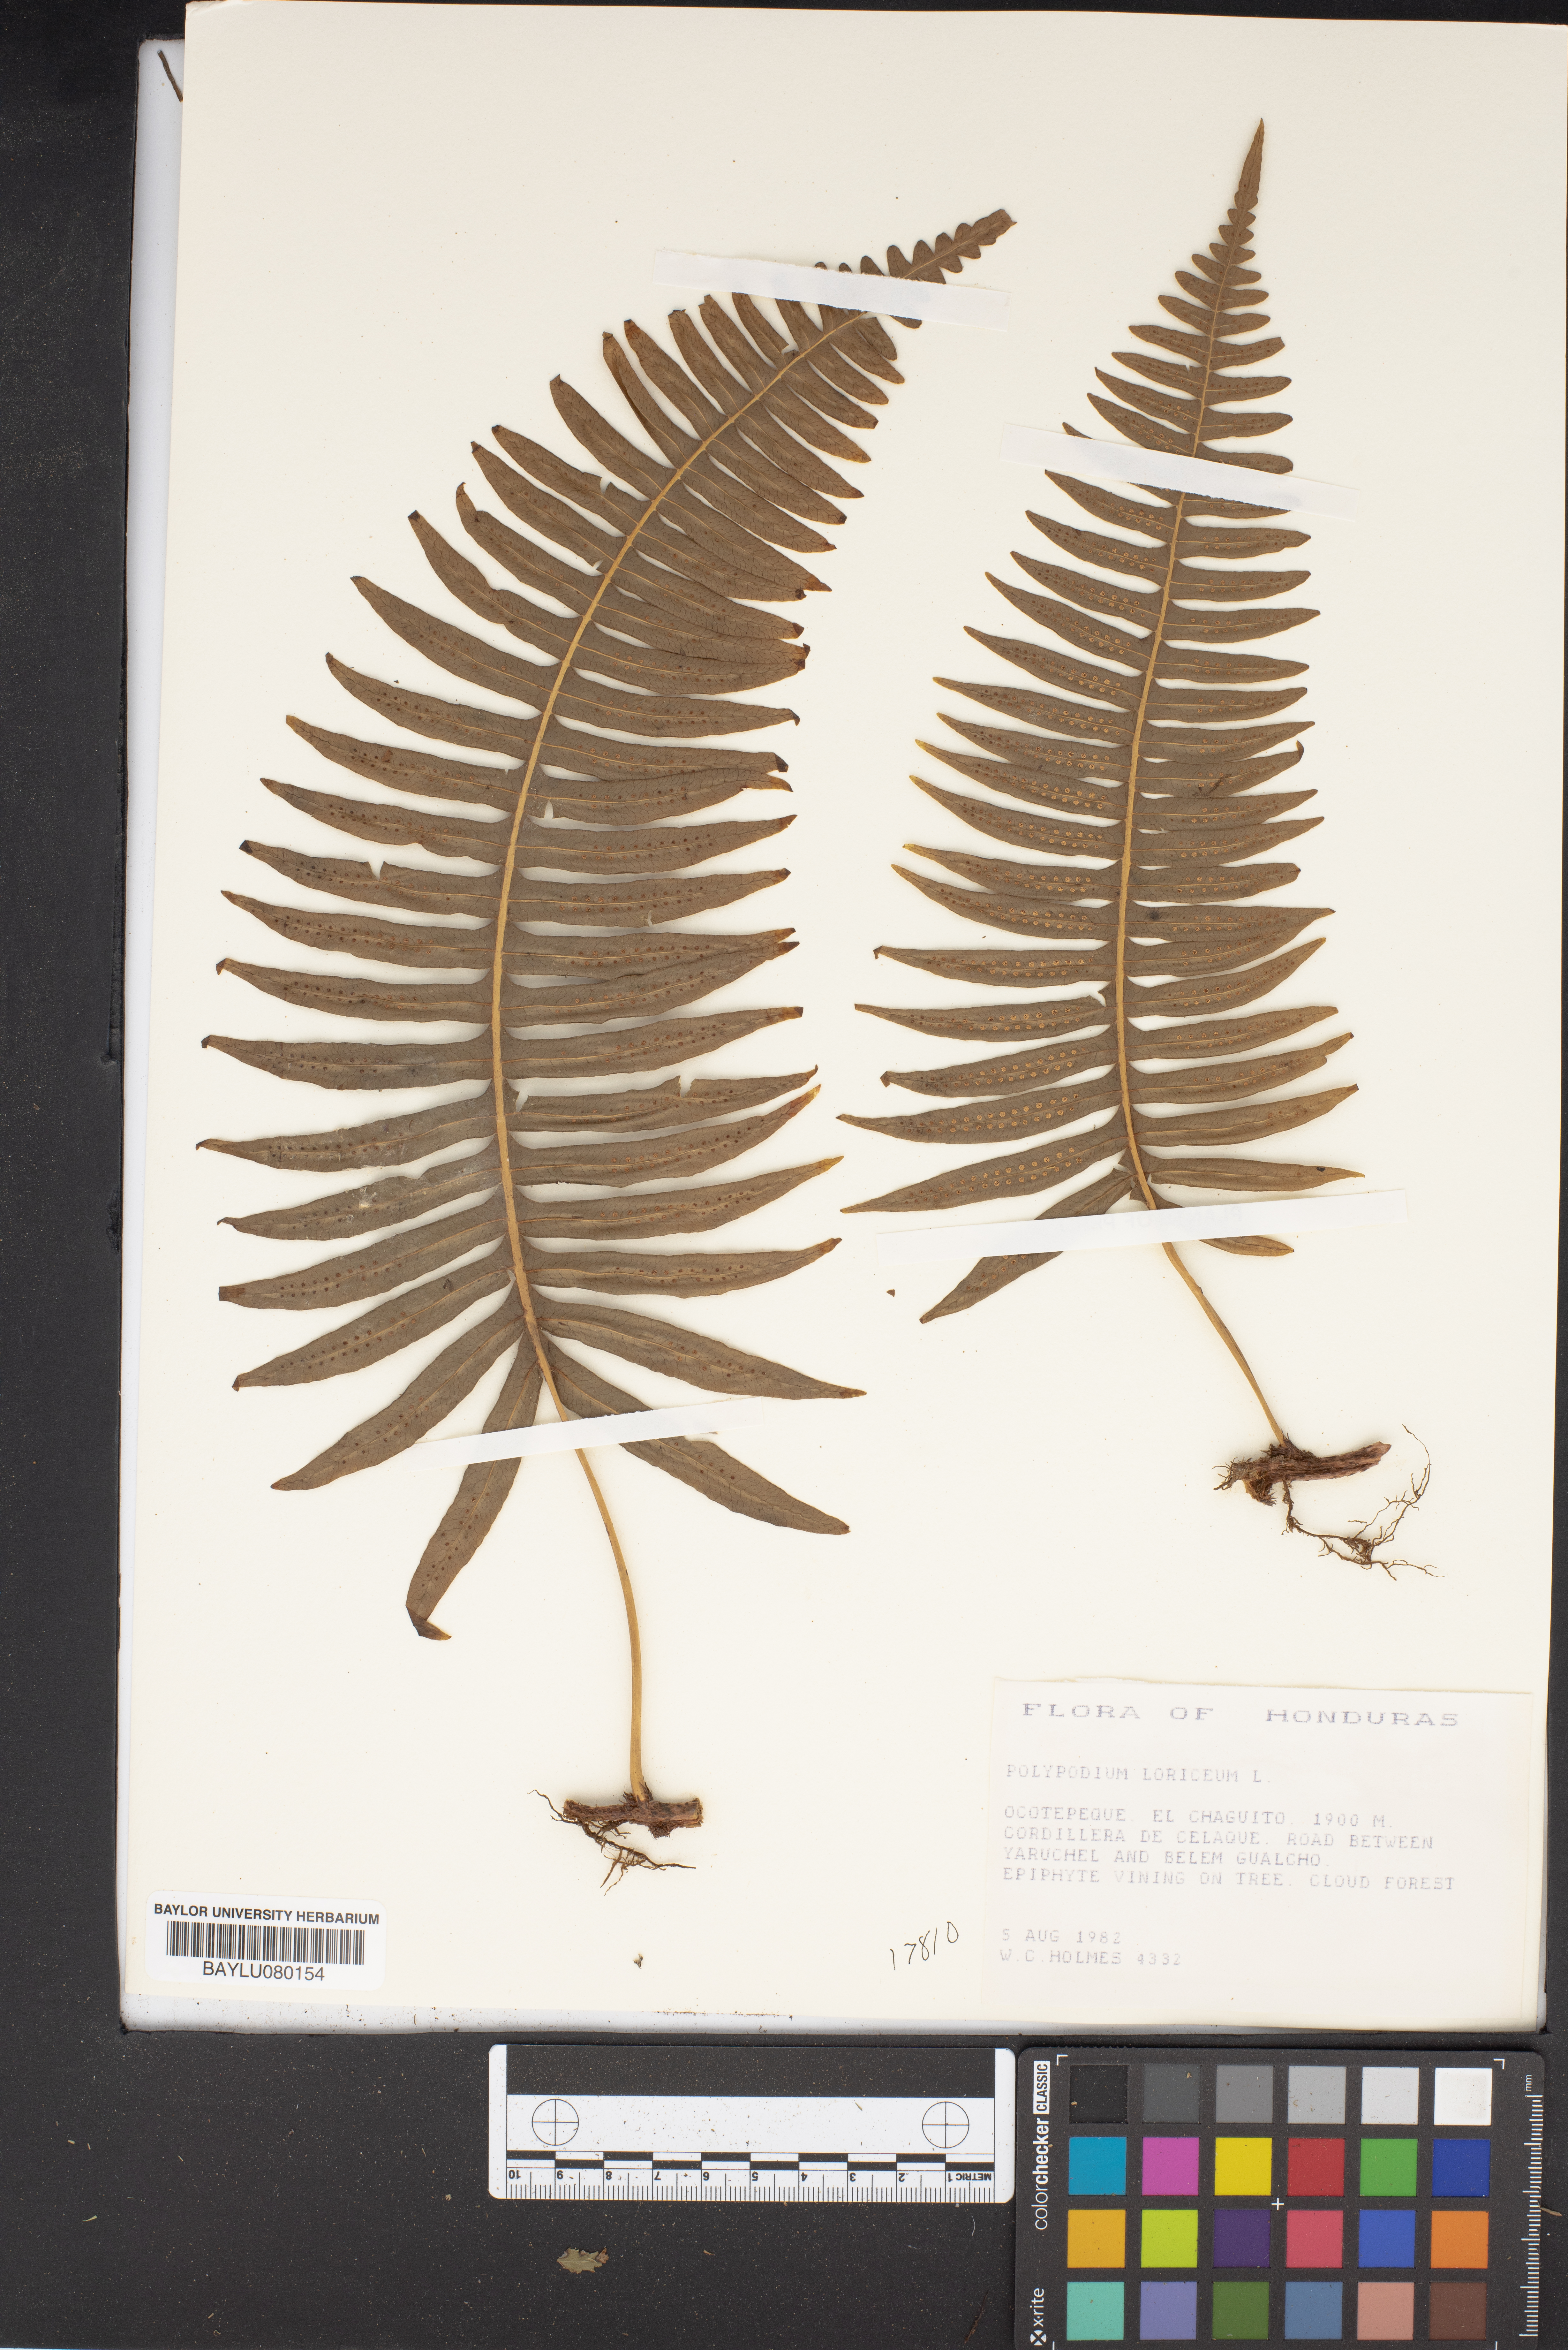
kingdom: Plantae
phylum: Tracheophyta
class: Polypodiopsida
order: Polypodiales
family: Polypodiaceae
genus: Serpocaulon
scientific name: Serpocaulon loriceum
